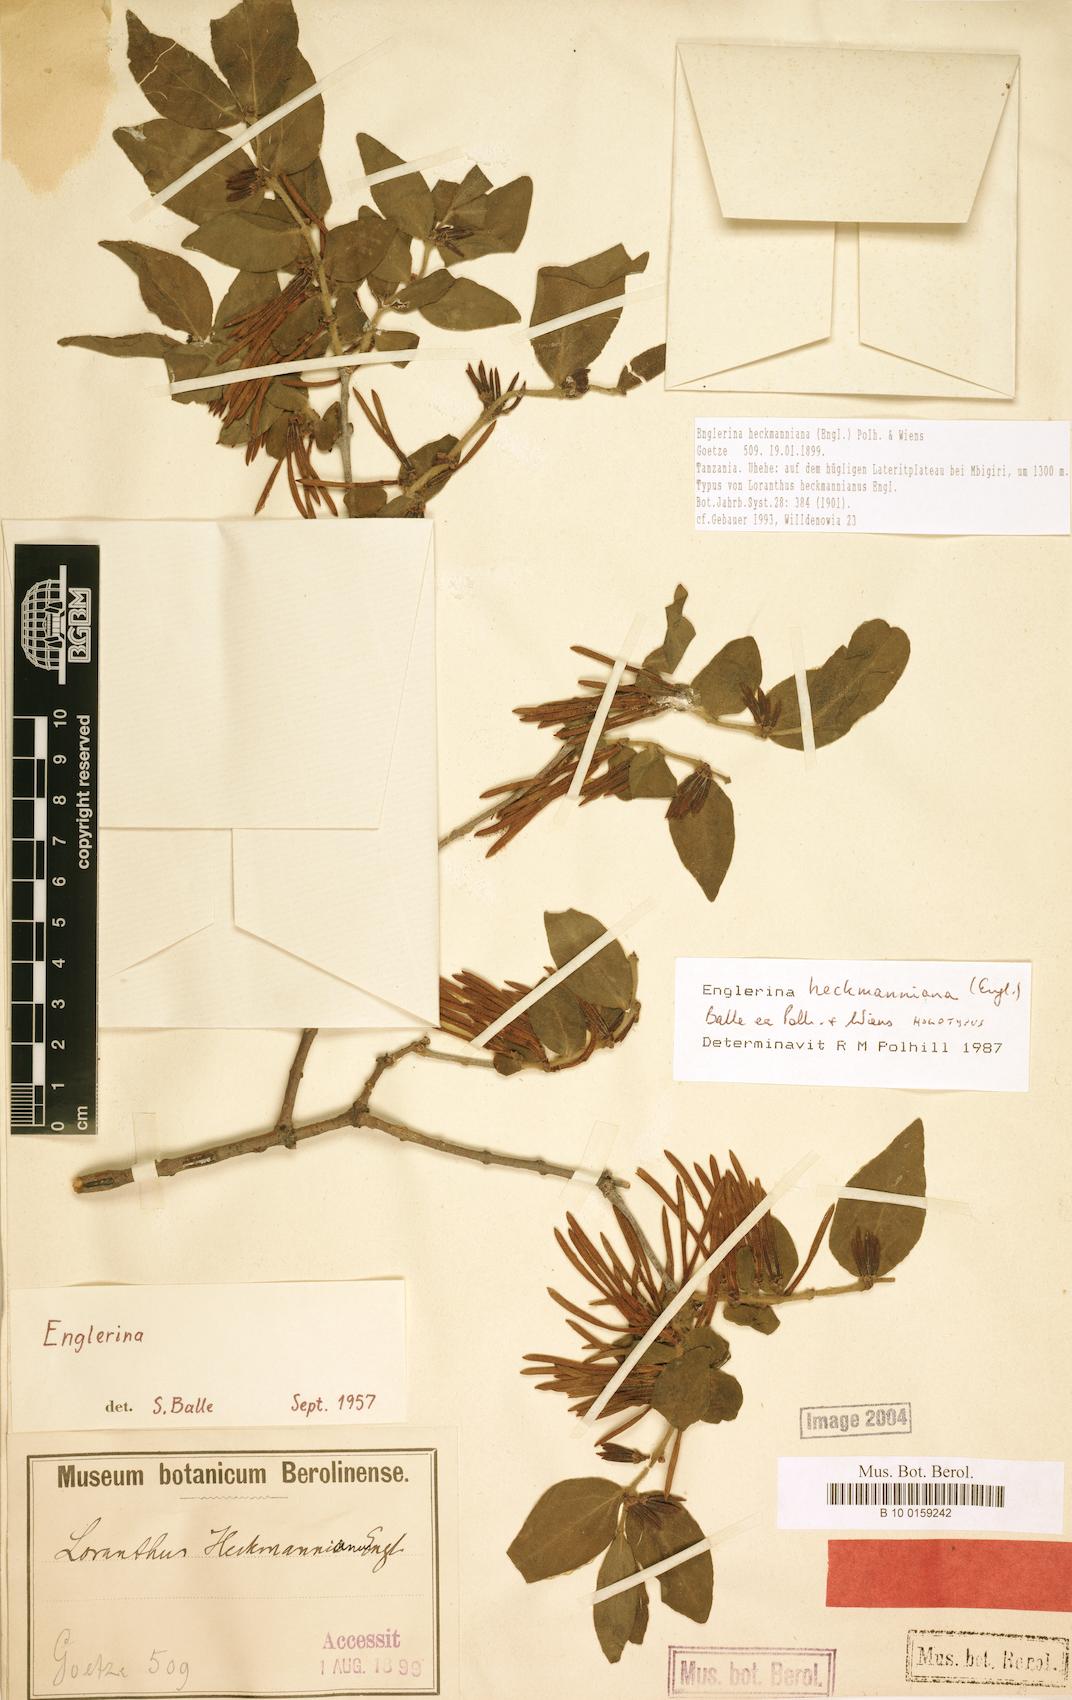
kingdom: Plantae
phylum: Tracheophyta
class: Magnoliopsida
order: Santalales
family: Loranthaceae
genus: Englerina
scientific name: Englerina heckmanniana
